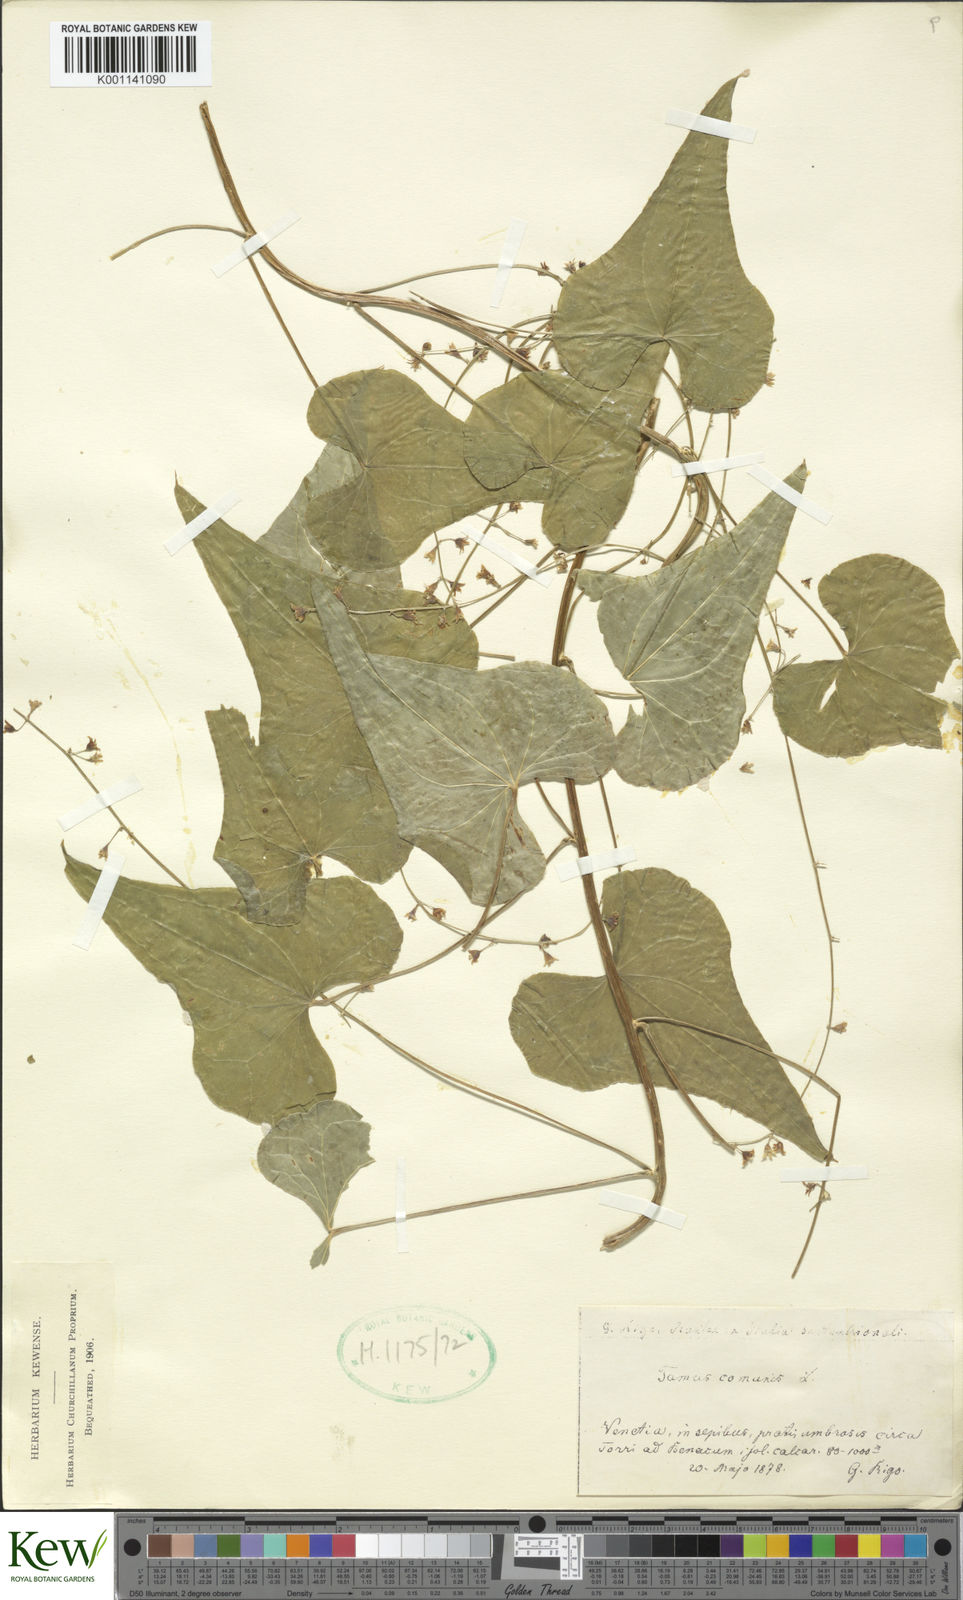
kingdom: Plantae
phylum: Tracheophyta
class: Liliopsida
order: Dioscoreales
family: Dioscoreaceae
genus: Dioscorea
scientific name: Dioscorea communis
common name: Black-bindweed
